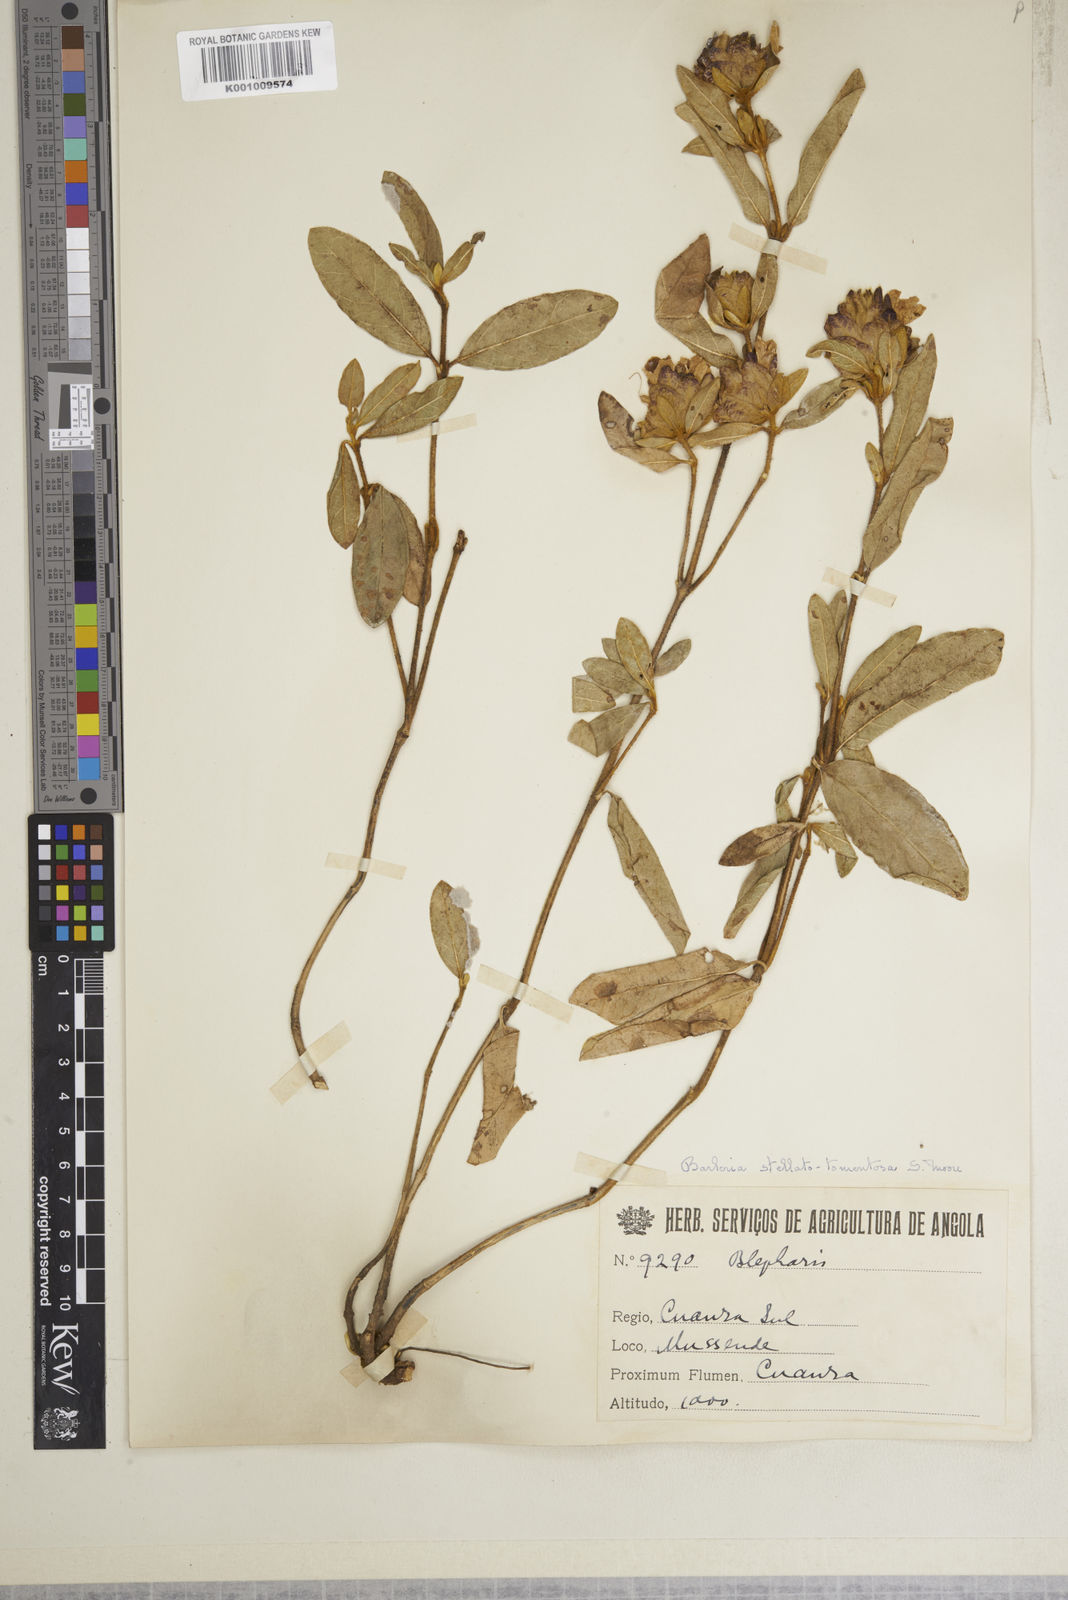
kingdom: Plantae
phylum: Tracheophyta
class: Magnoliopsida
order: Lamiales
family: Acanthaceae
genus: Barleria
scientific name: Barleria stellatotomentosa
